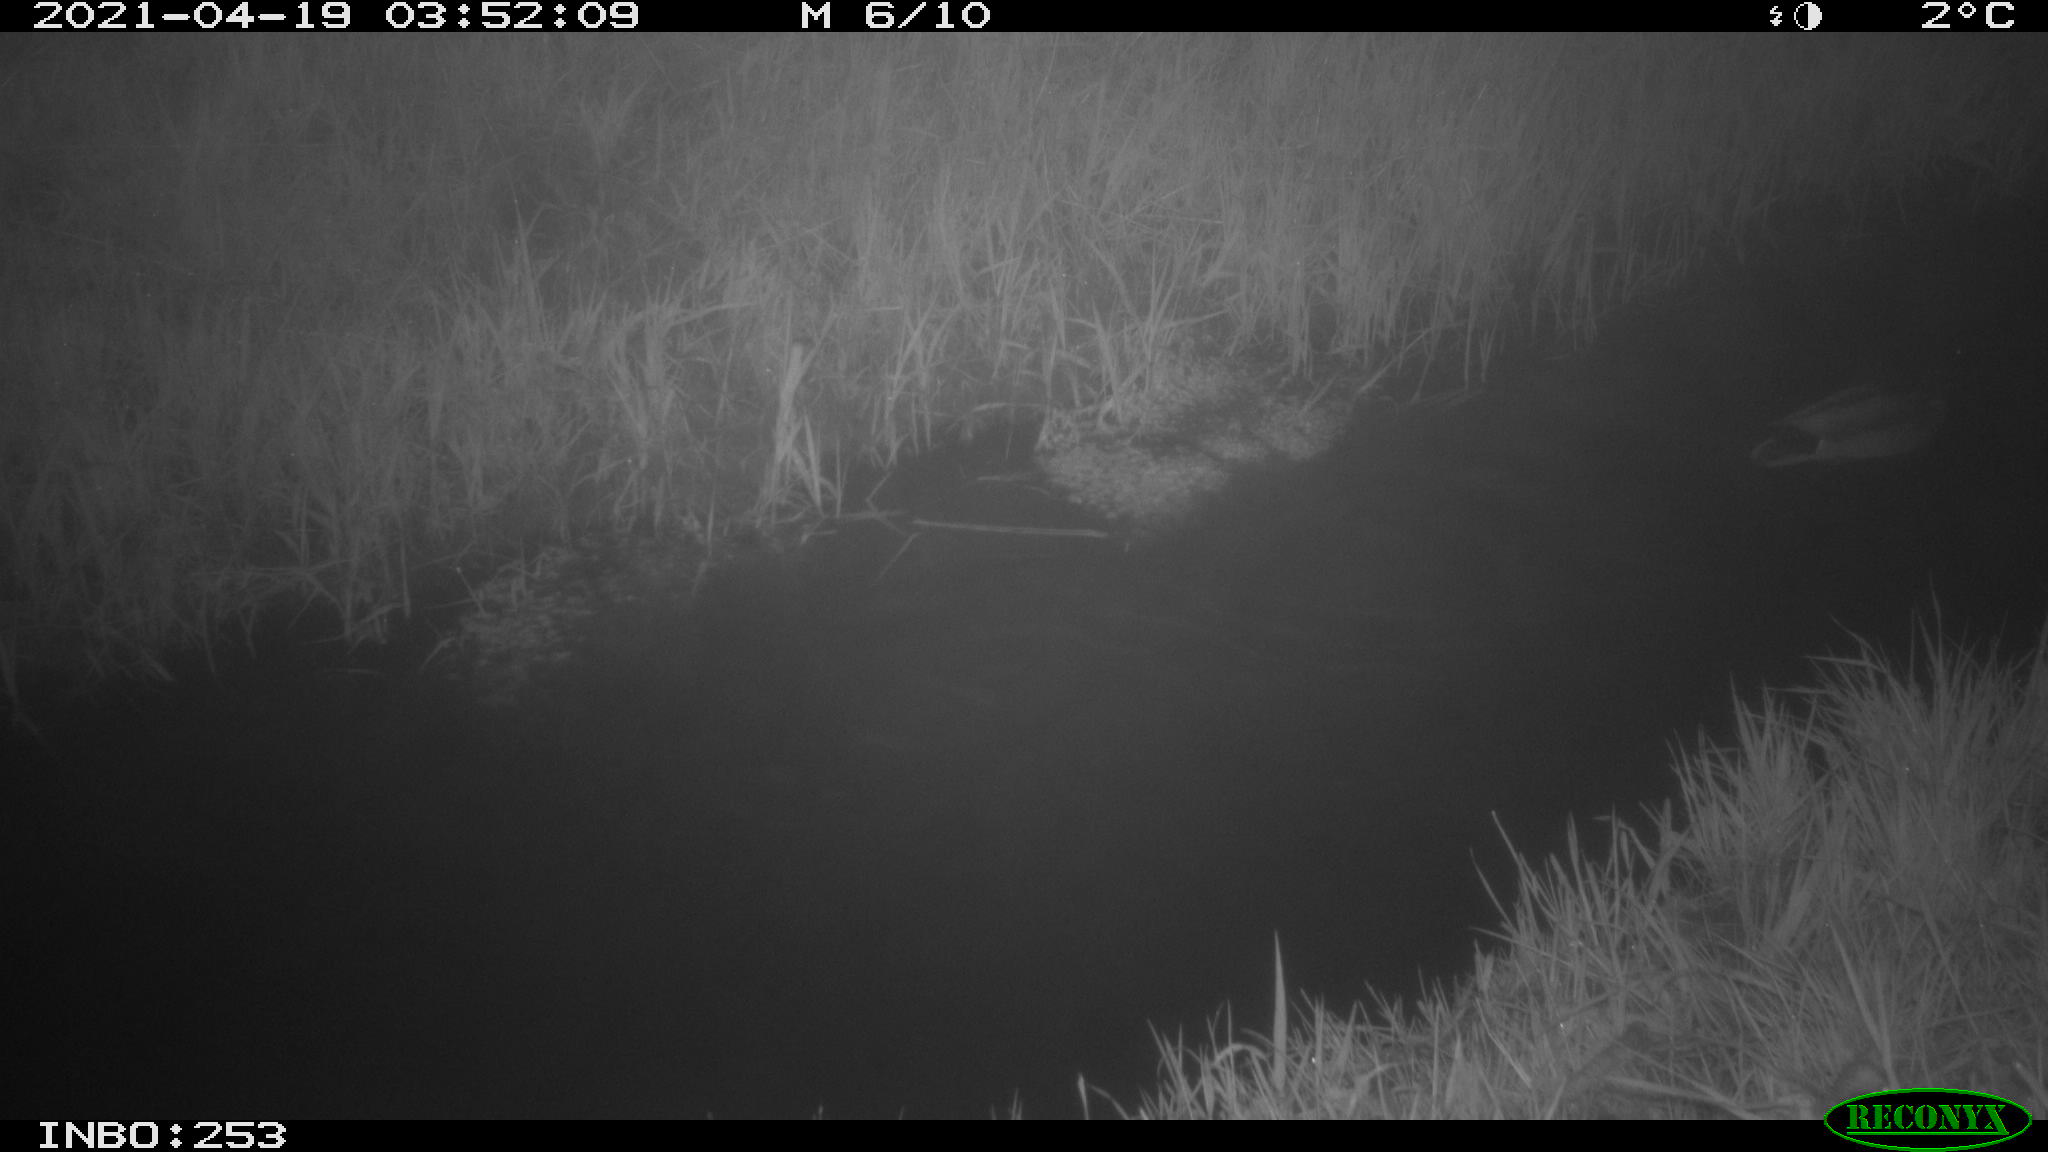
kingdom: Animalia
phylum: Chordata
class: Aves
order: Anseriformes
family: Anatidae
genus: Anas
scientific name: Anas platyrhynchos
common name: Mallard
